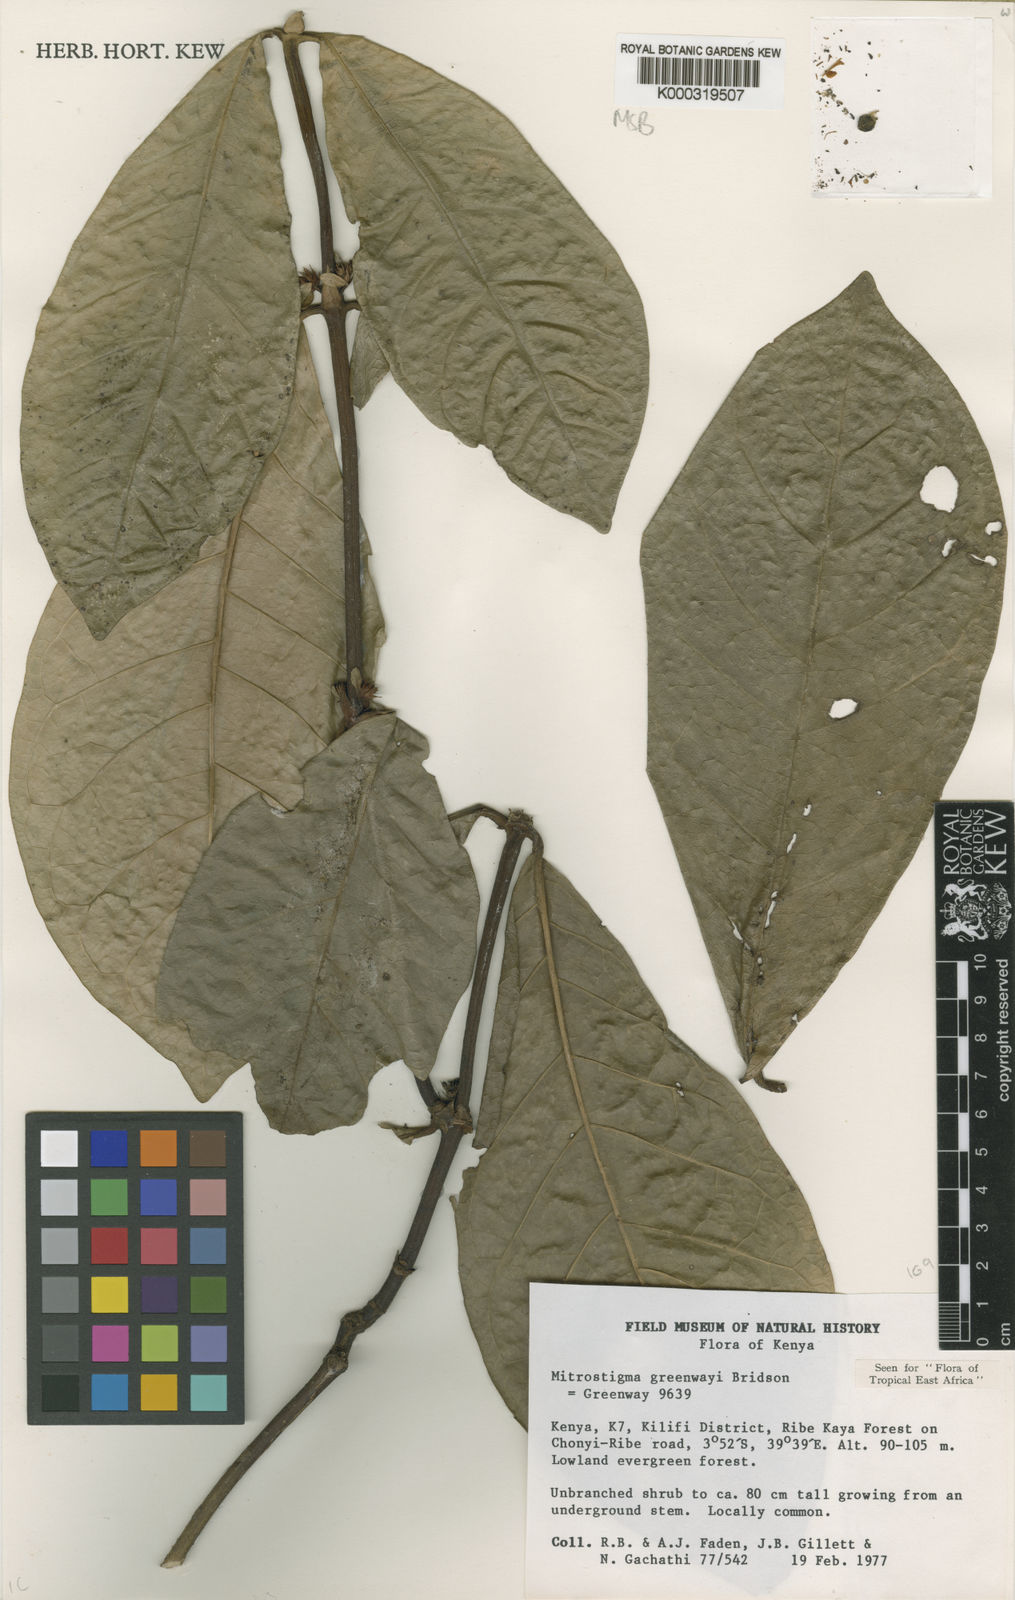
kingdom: Plantae
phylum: Tracheophyta
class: Magnoliopsida
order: Gentianales
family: Rubiaceae
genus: Mitriostigma
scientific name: Mitriostigma greenwayi
